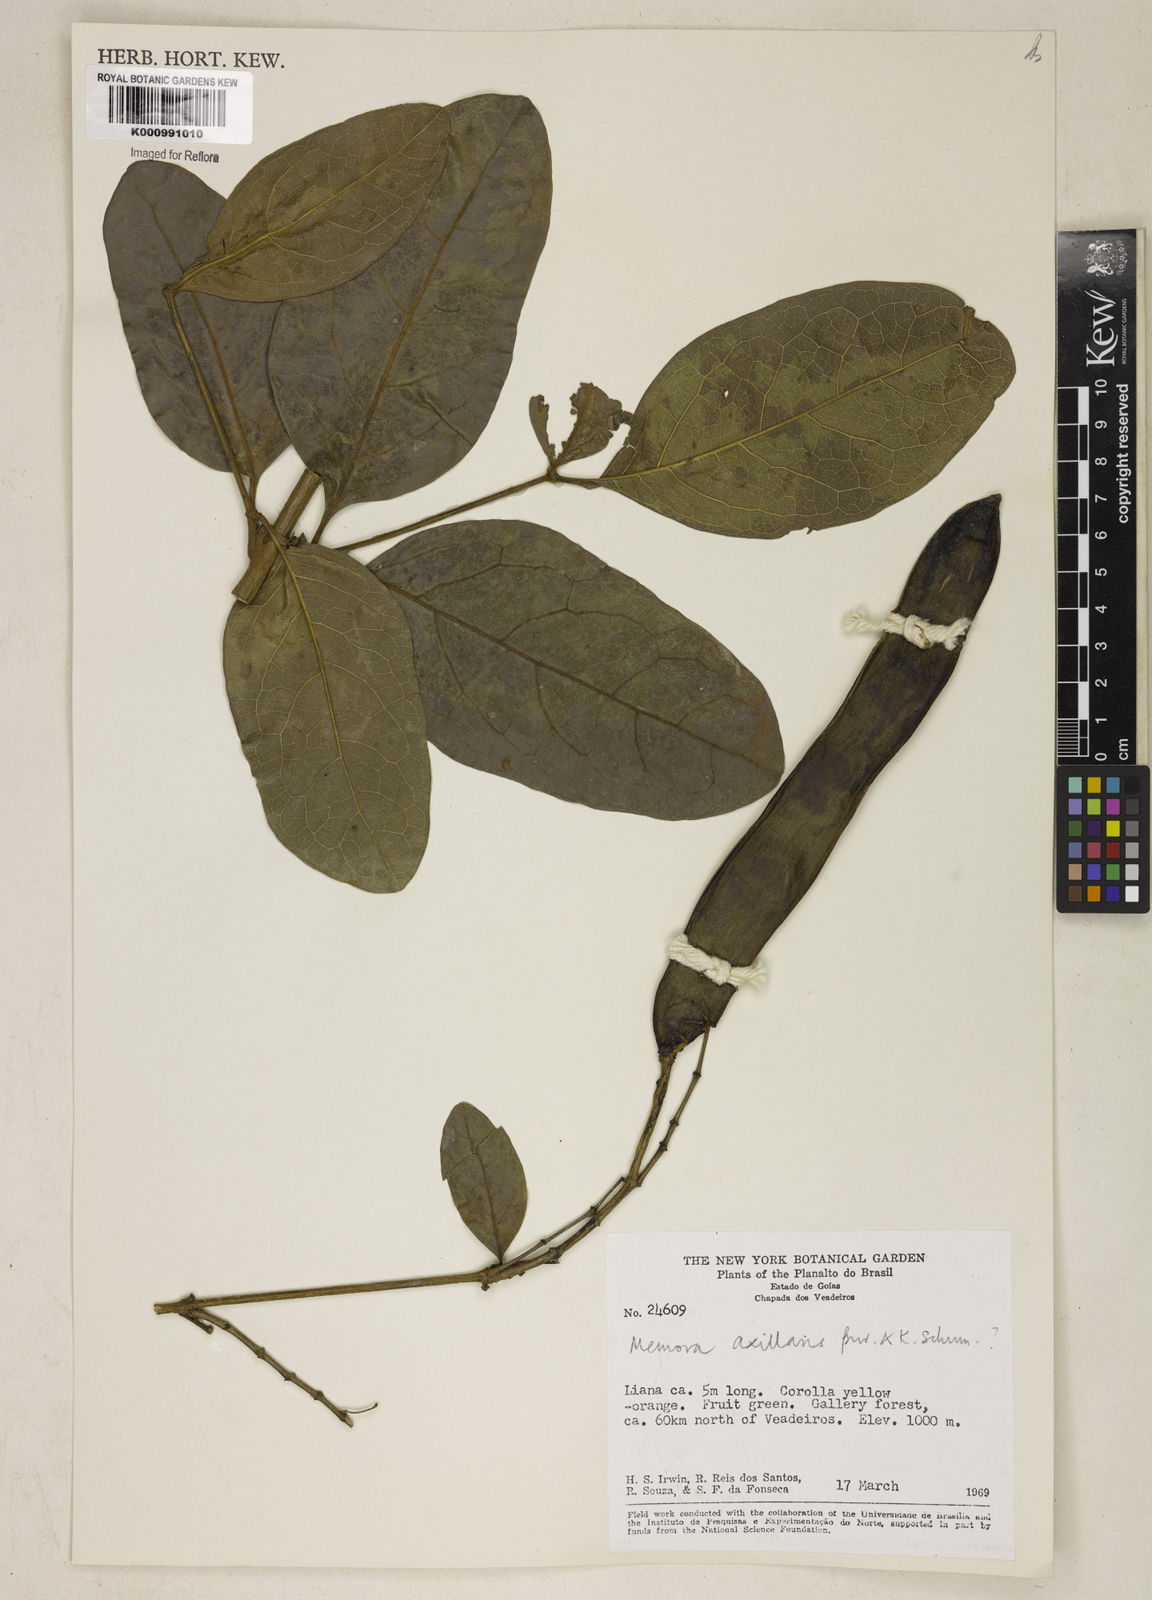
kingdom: Plantae
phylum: Tracheophyta
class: Magnoliopsida
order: Lamiales
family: Bignoniaceae
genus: Adenocalymma
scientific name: Adenocalymma axillare
